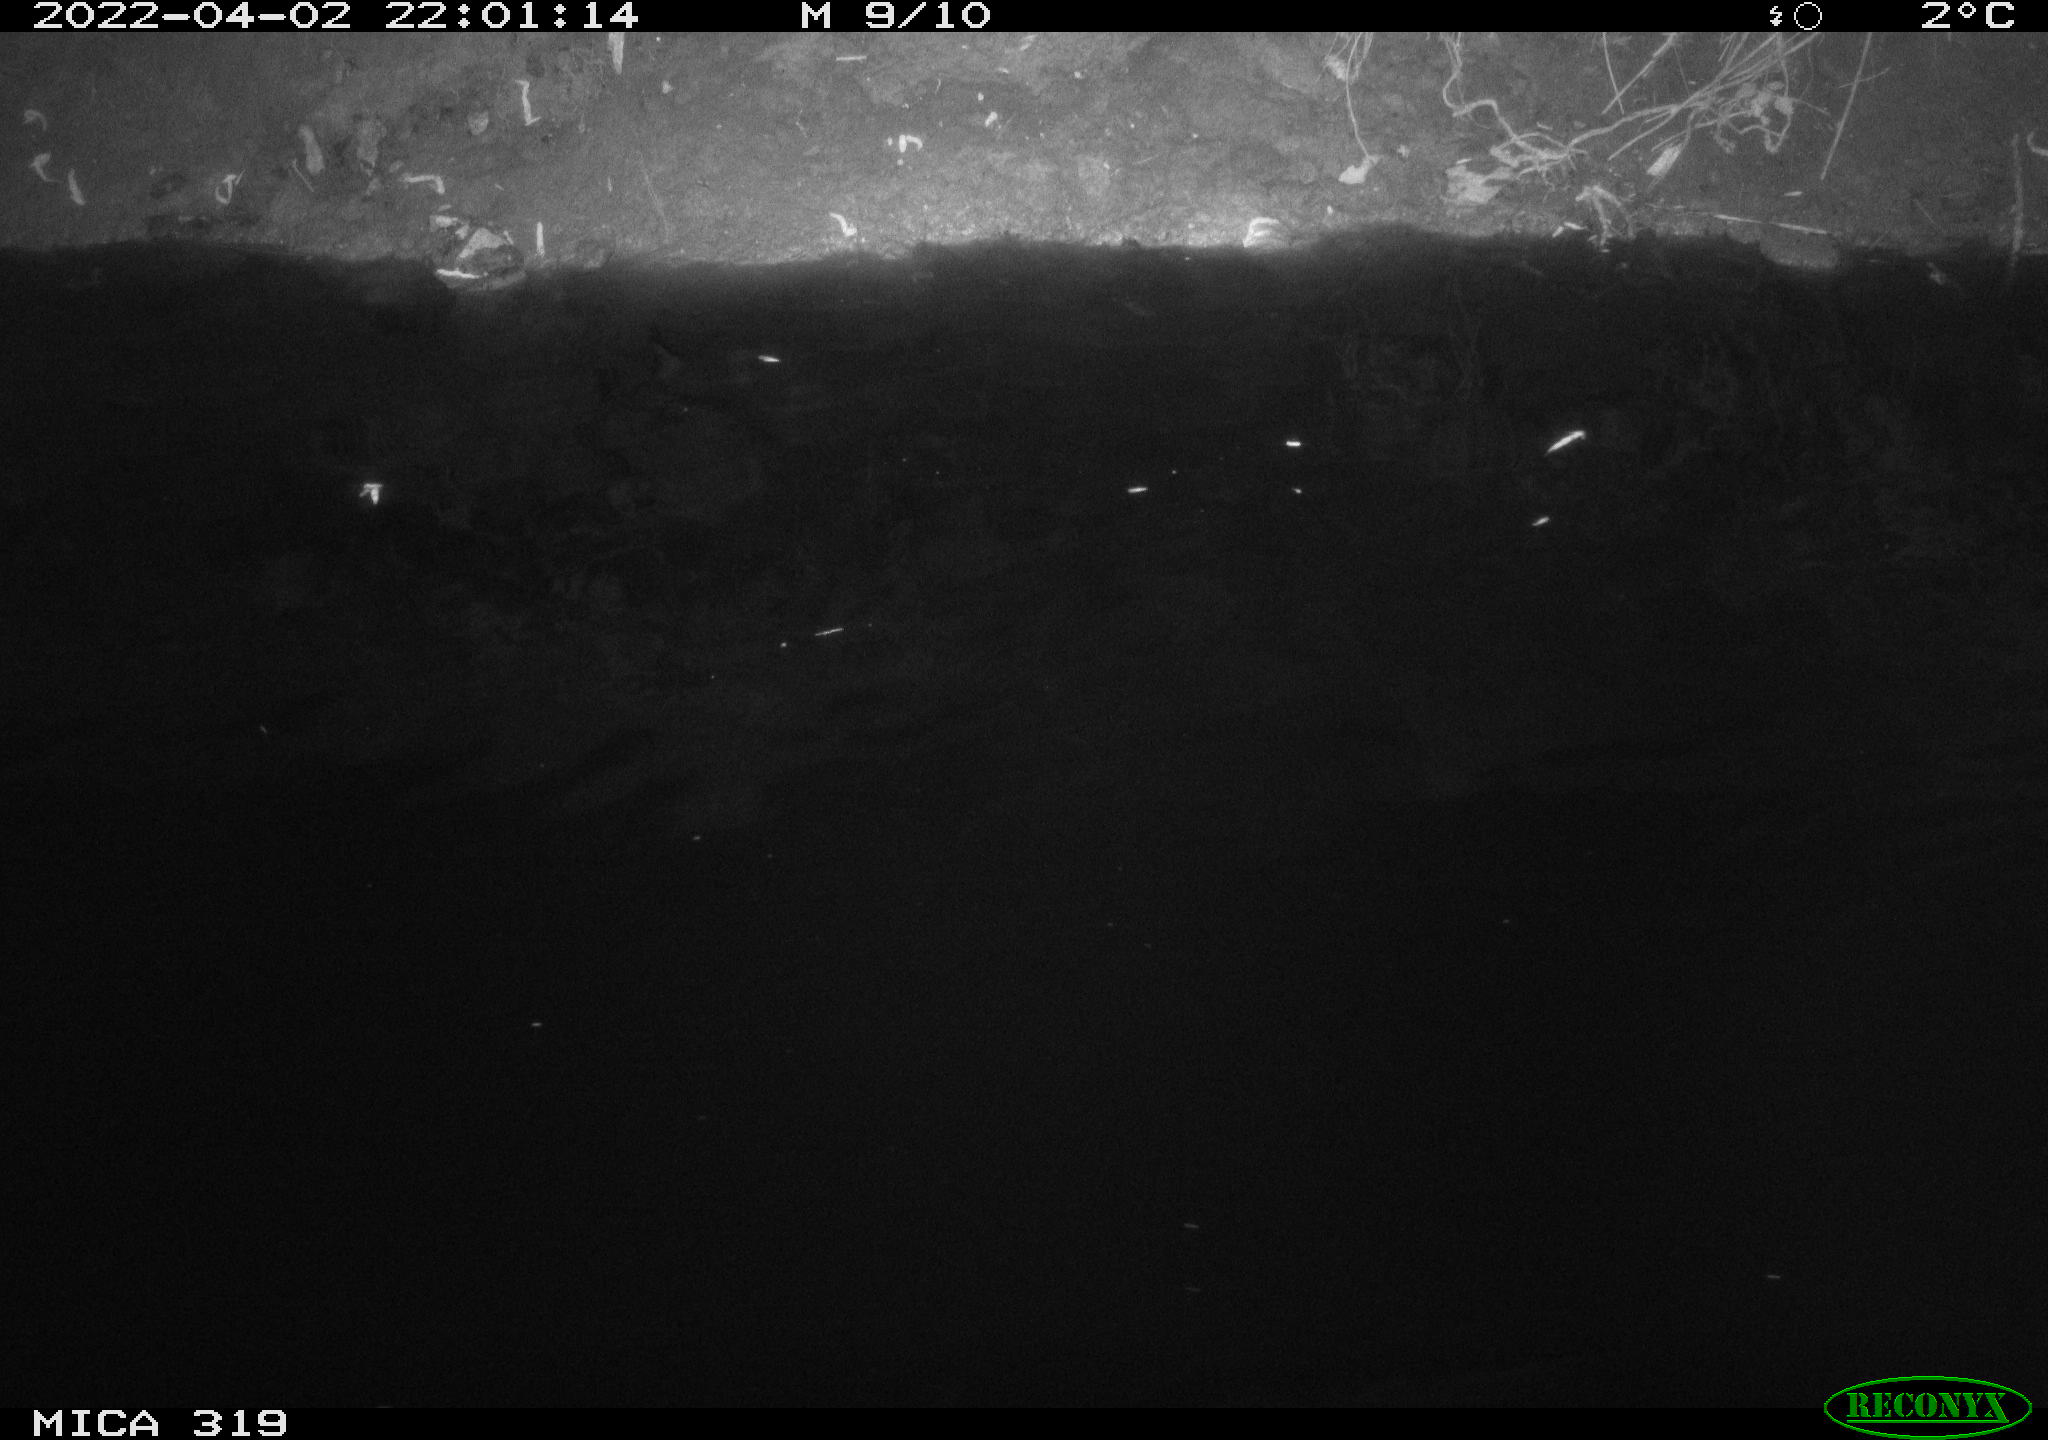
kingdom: Animalia
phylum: Chordata
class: Aves
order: Anseriformes
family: Anatidae
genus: Anas
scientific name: Anas platyrhynchos
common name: Mallard
